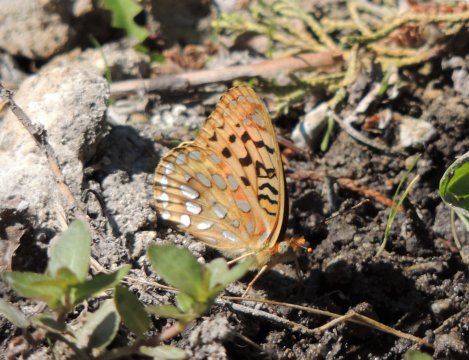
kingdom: Animalia
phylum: Arthropoda
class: Insecta
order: Lepidoptera
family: Nymphalidae
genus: Speyeria
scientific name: Speyeria coronis
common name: Coronis Fritillary
